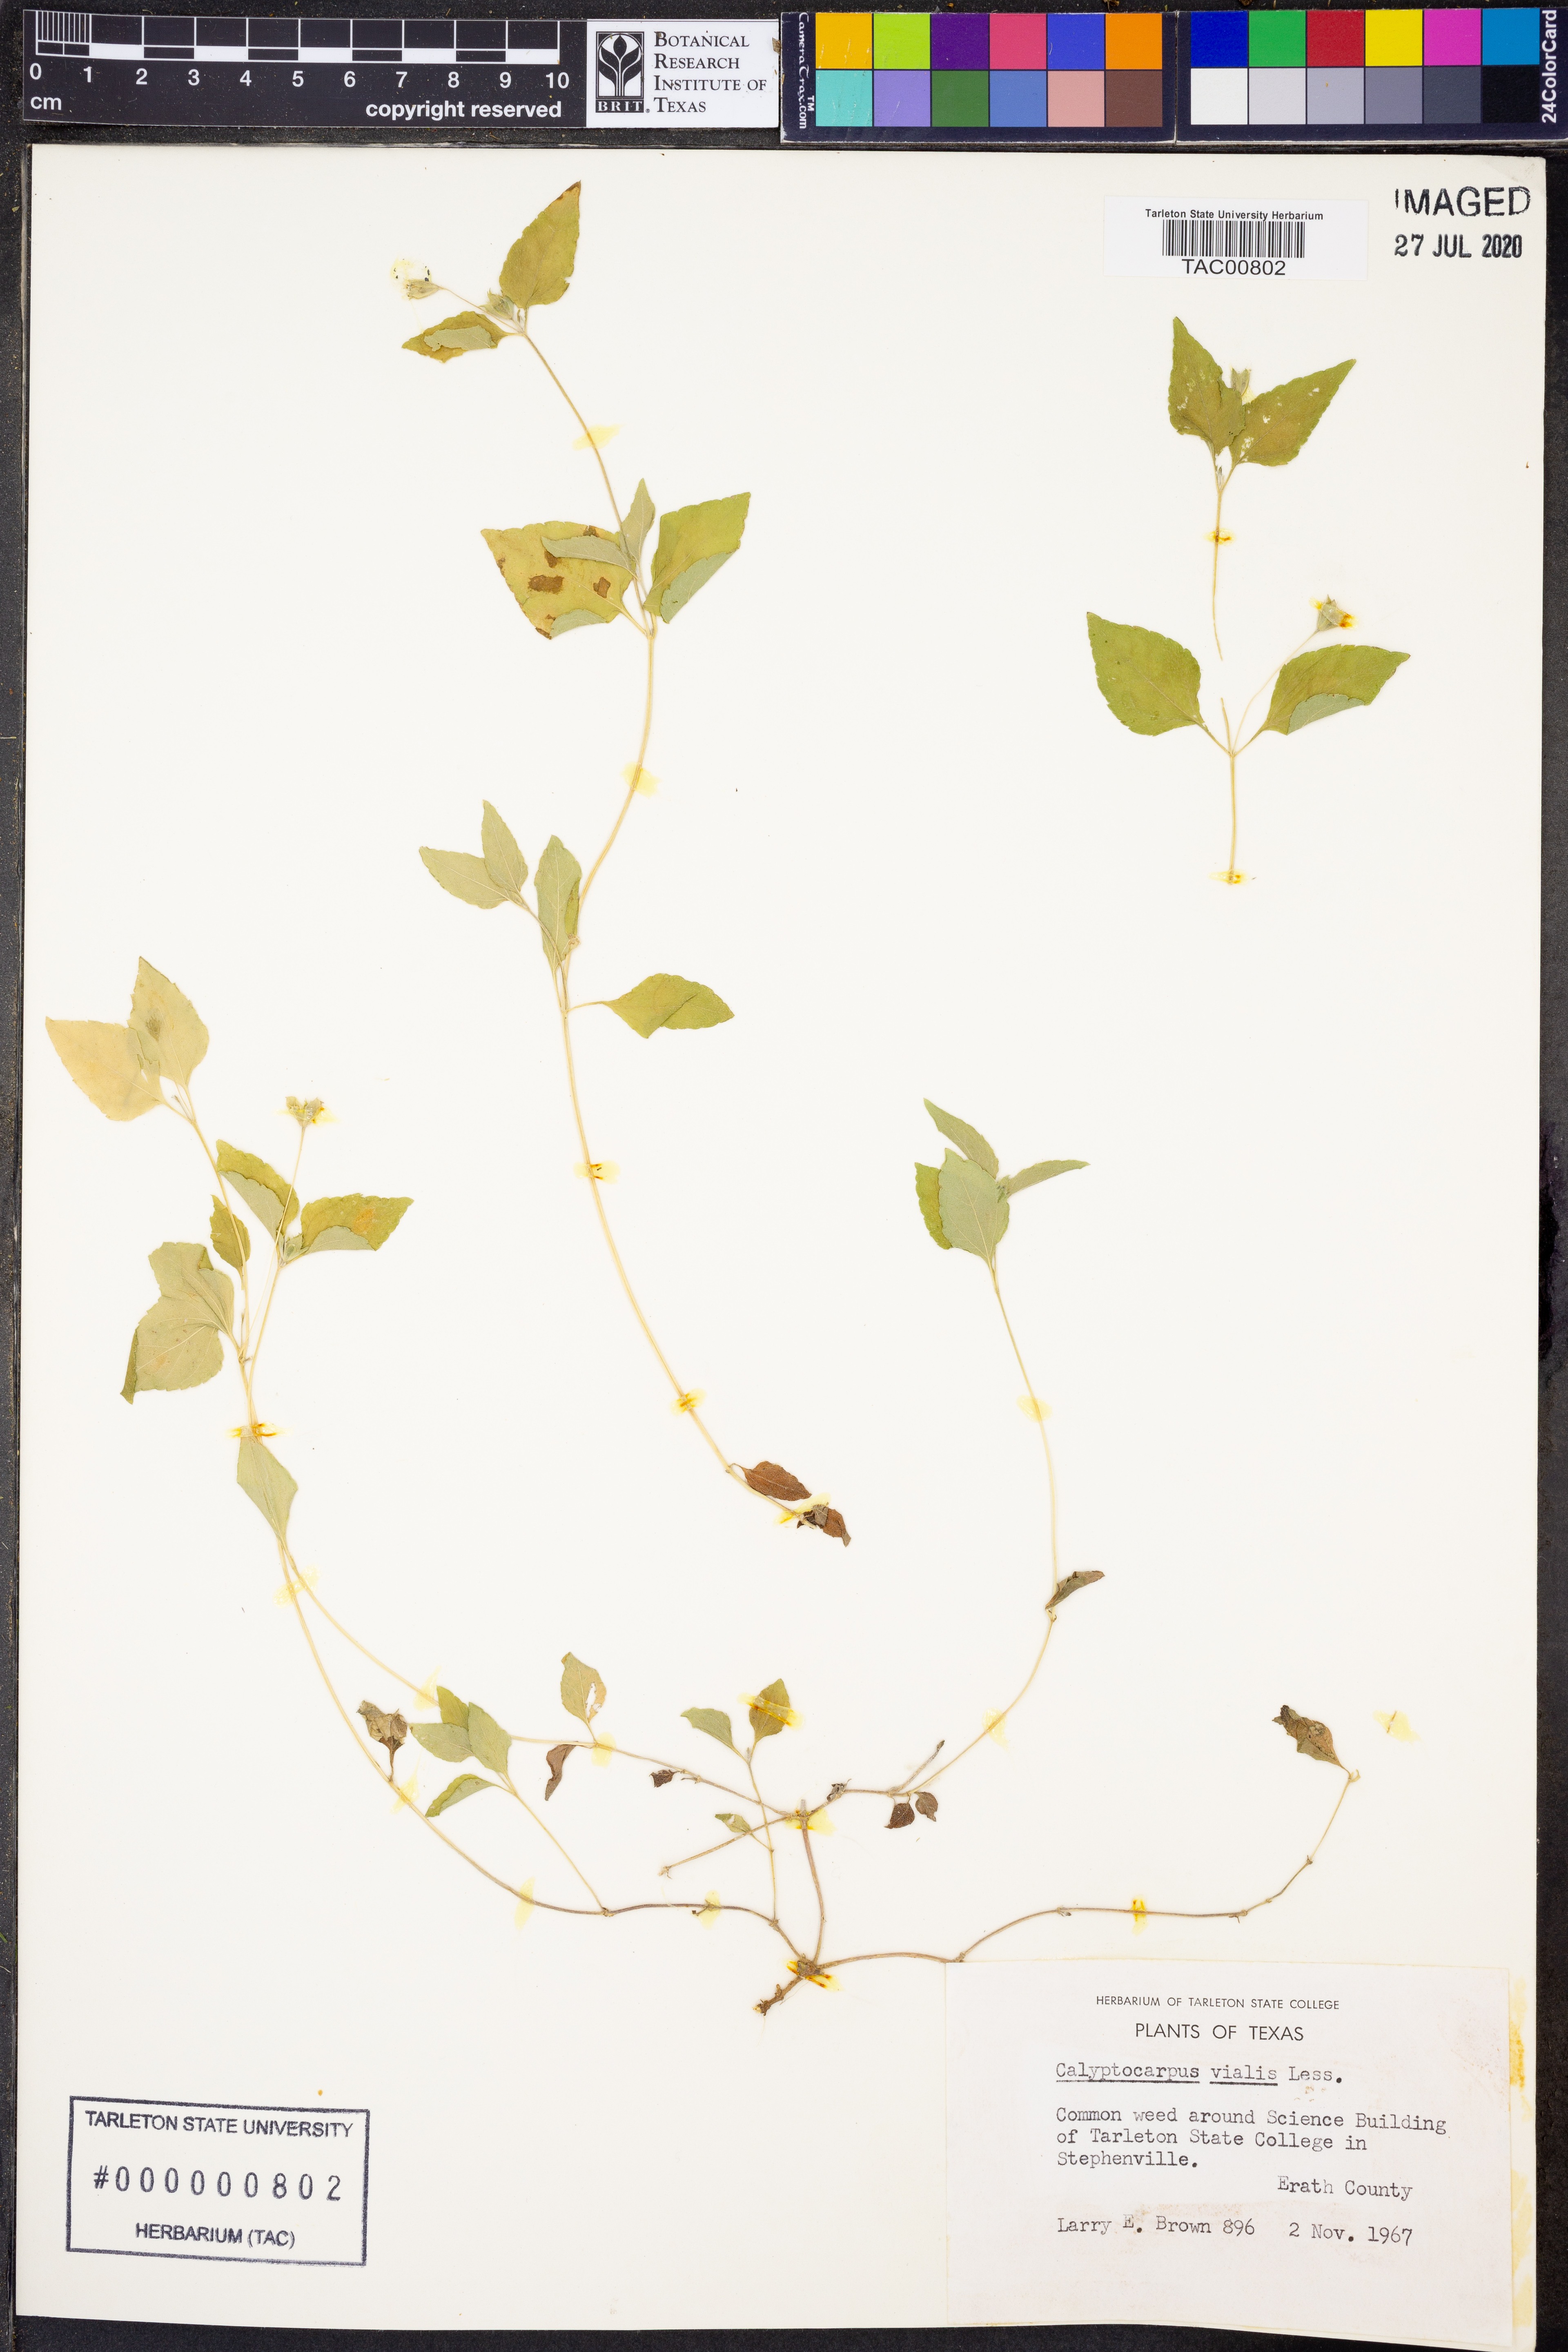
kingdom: Plantae
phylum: Tracheophyta
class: Magnoliopsida
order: Asterales
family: Asteraceae
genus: Calyptocarpus
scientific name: Calyptocarpus vialis
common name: Straggler daisy
